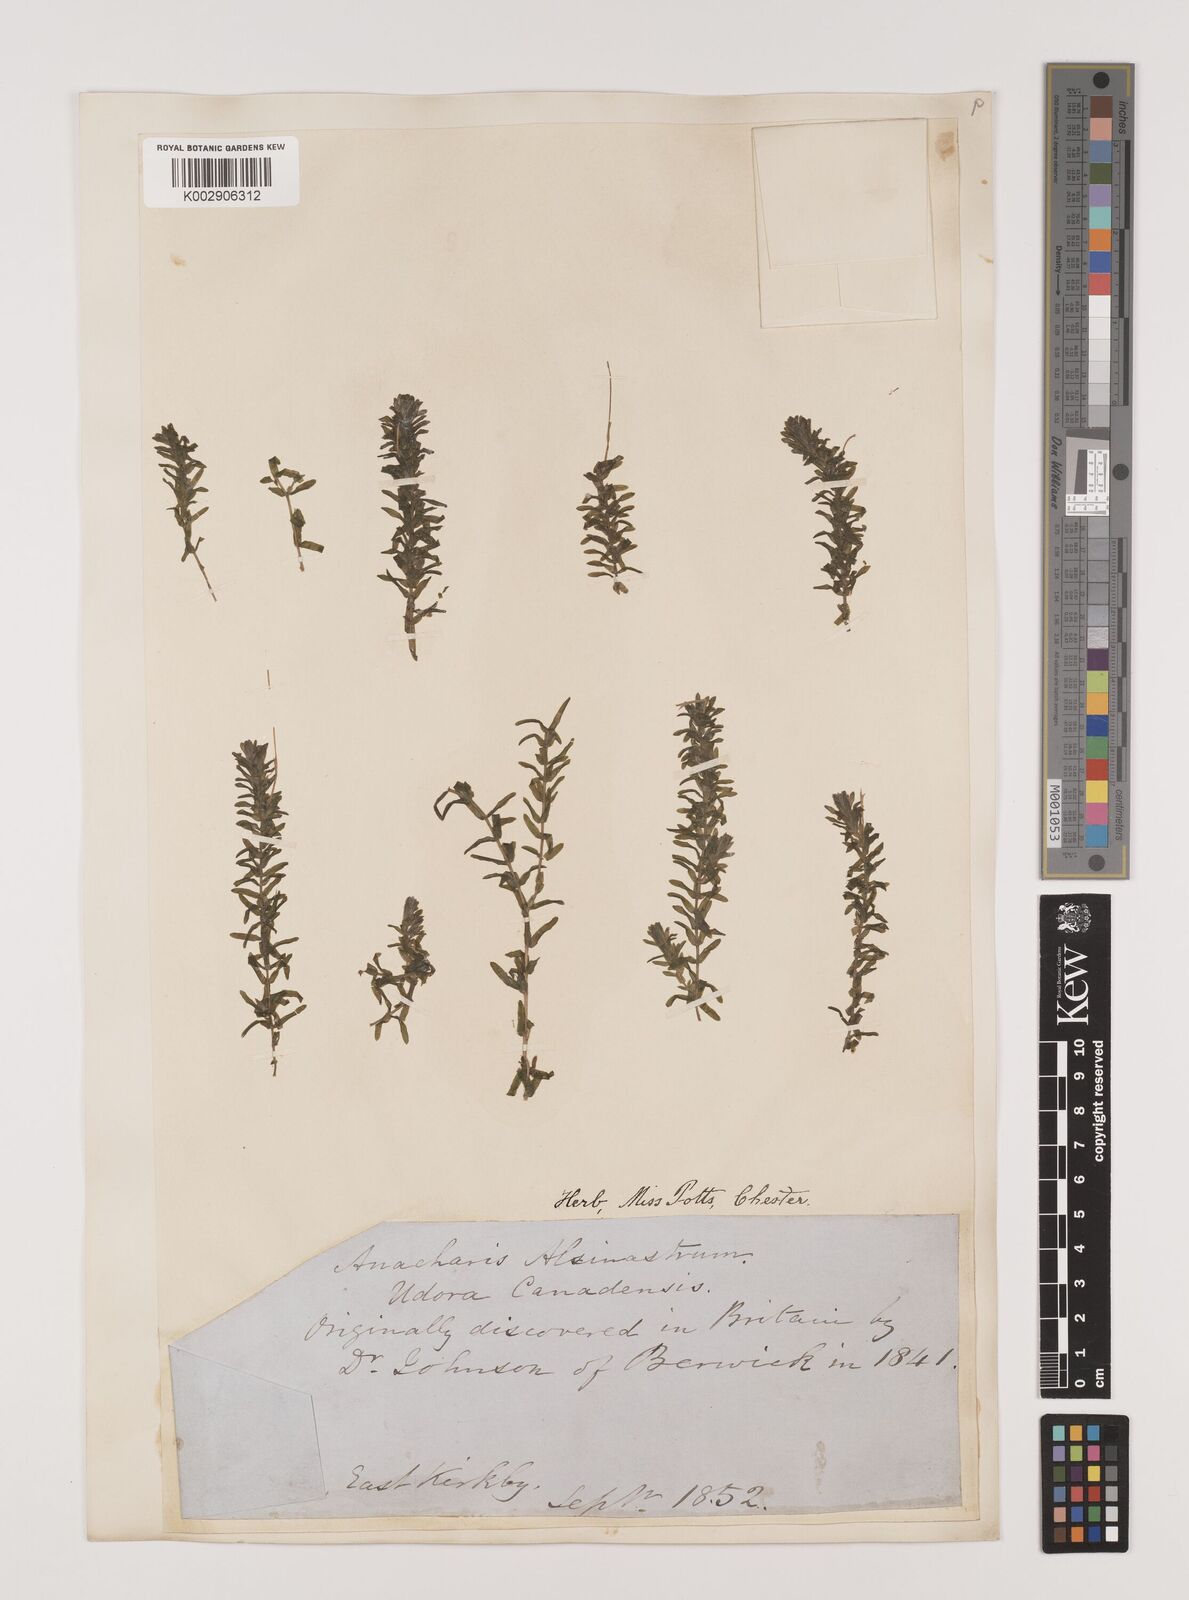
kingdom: Plantae
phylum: Tracheophyta
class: Liliopsida
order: Alismatales
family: Hydrocharitaceae
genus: Elodea
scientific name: Elodea canadensis
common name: Canadian waterweed
